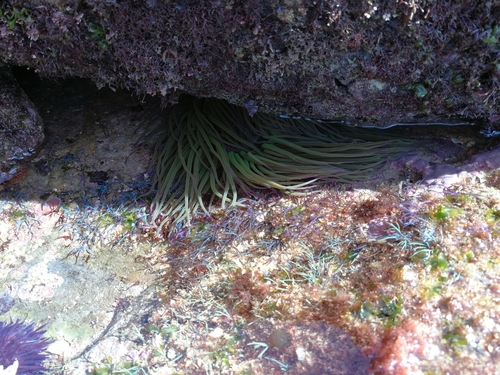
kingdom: Animalia
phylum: Cnidaria
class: Anthozoa
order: Actiniaria
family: Actiniidae
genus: Anemonia
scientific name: Anemonia viridis
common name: Snakelocks anemone
